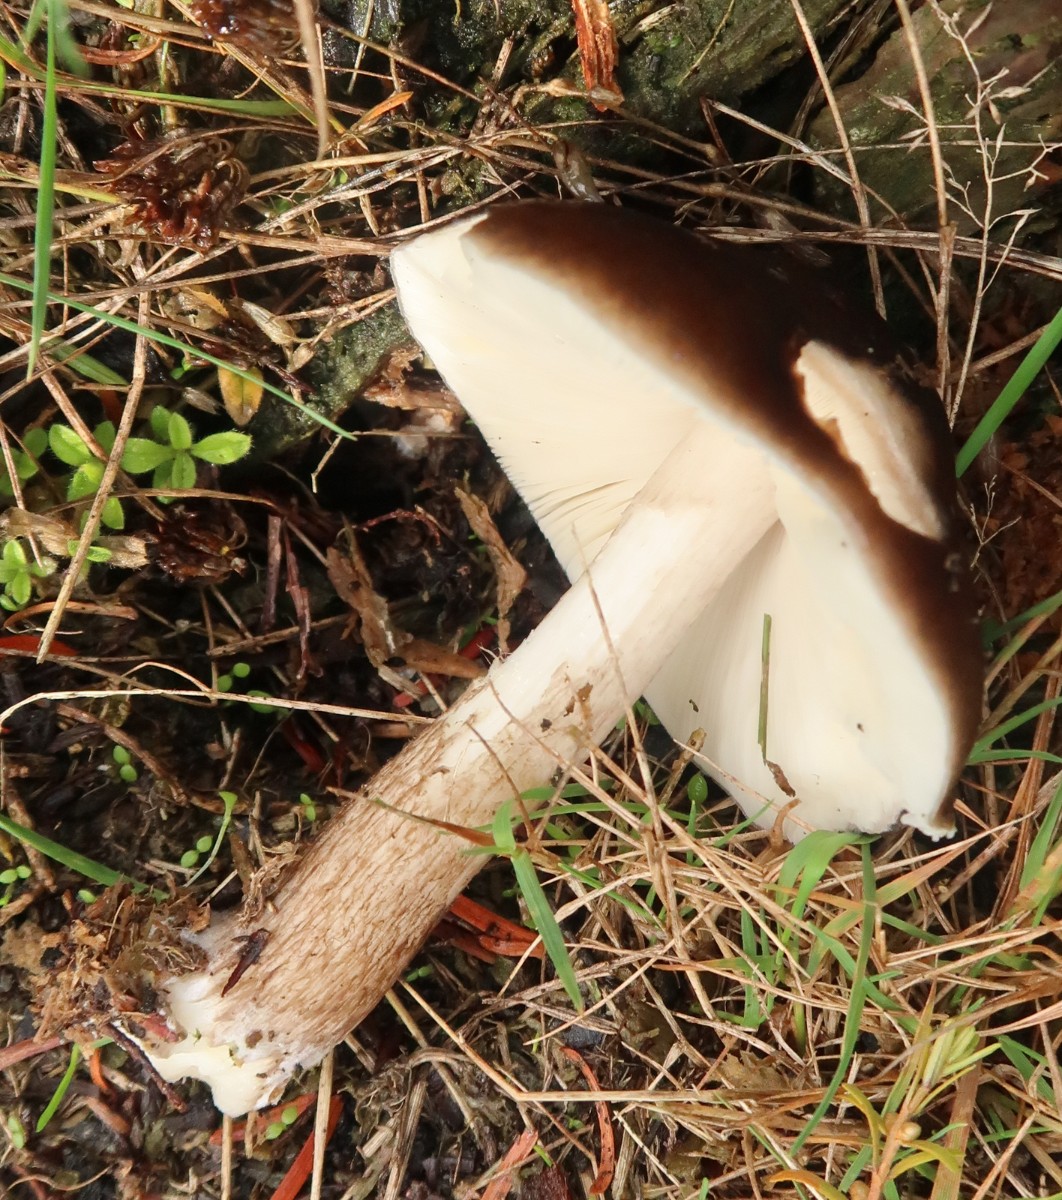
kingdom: Fungi
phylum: Basidiomycota
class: Agaricomycetes
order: Agaricales
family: Pluteaceae
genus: Pluteus
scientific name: Pluteus cervinus
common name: sodfarvet skærmhat
